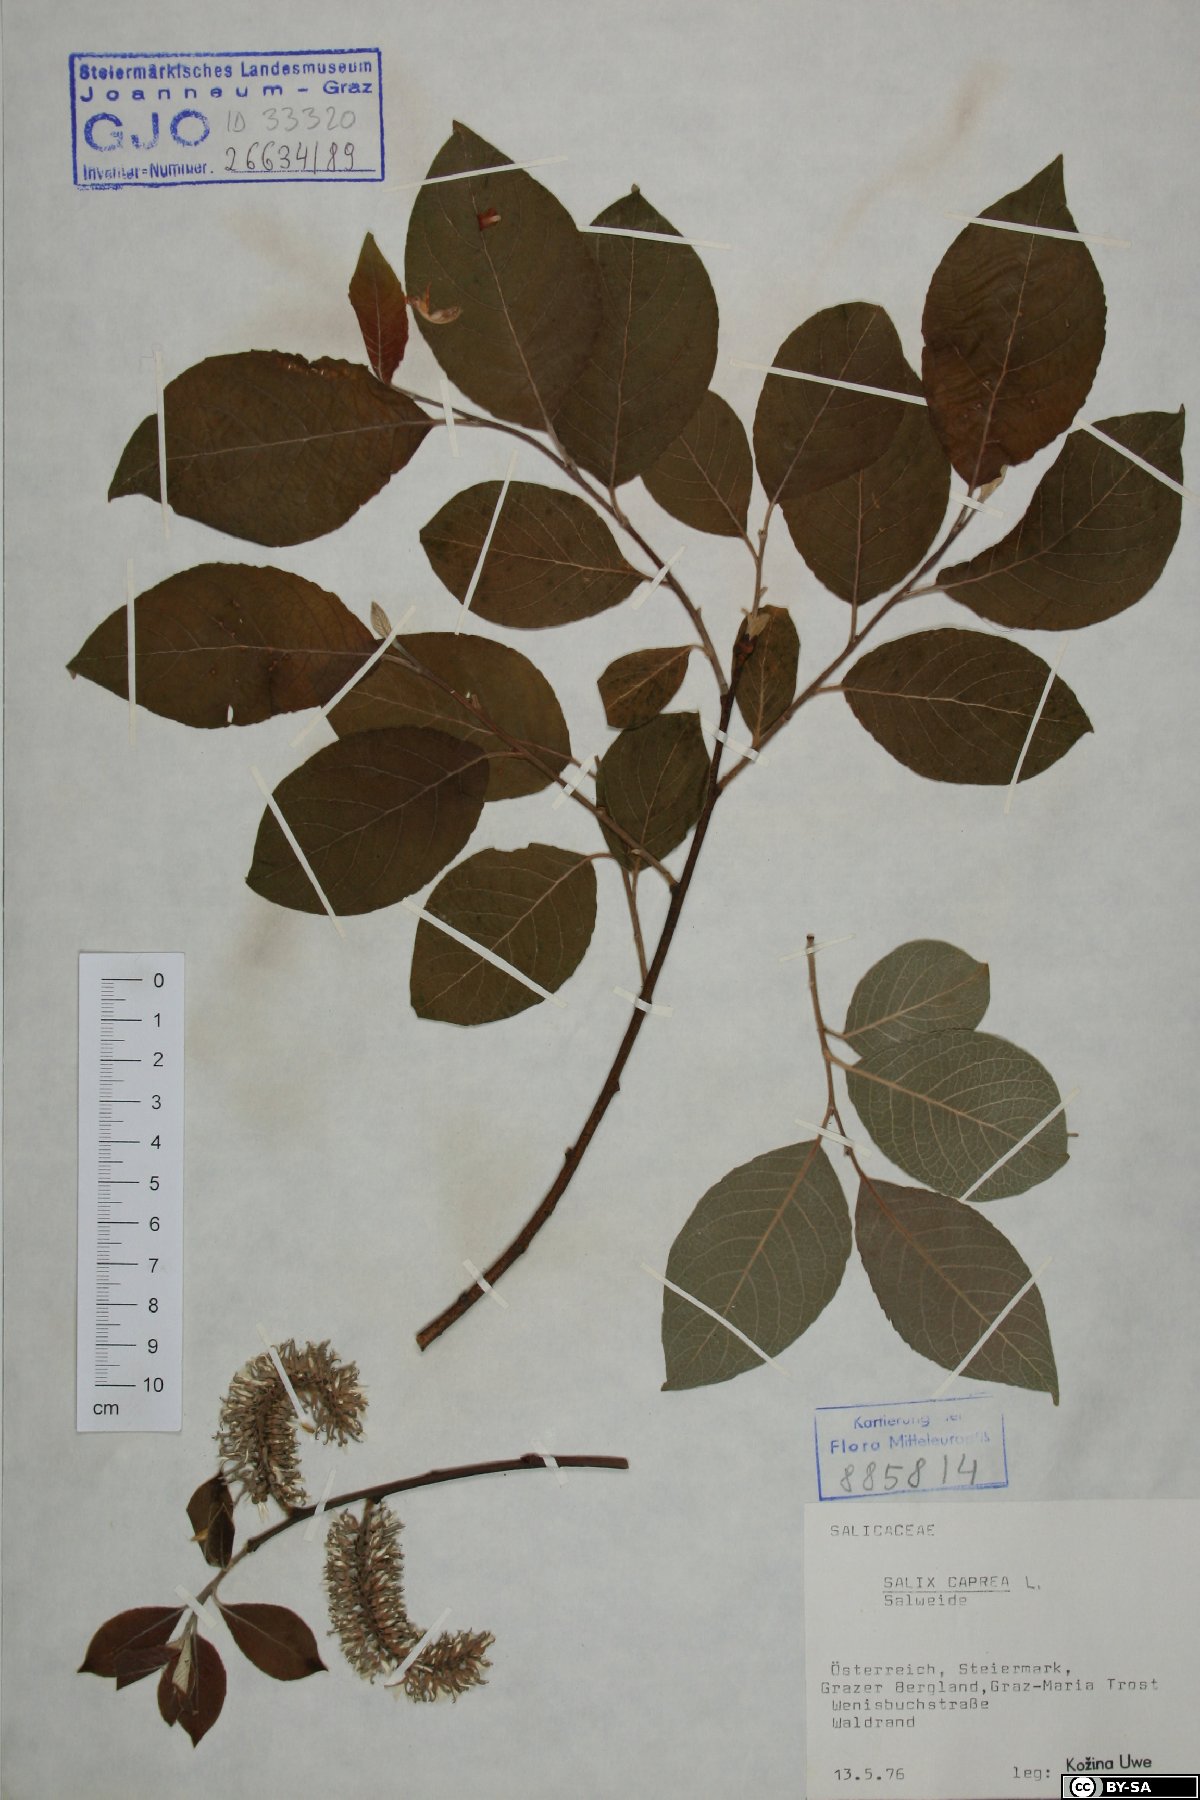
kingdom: Plantae
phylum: Tracheophyta
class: Magnoliopsida
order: Malpighiales
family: Salicaceae
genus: Salix
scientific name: Salix caprea
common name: Goat willow
